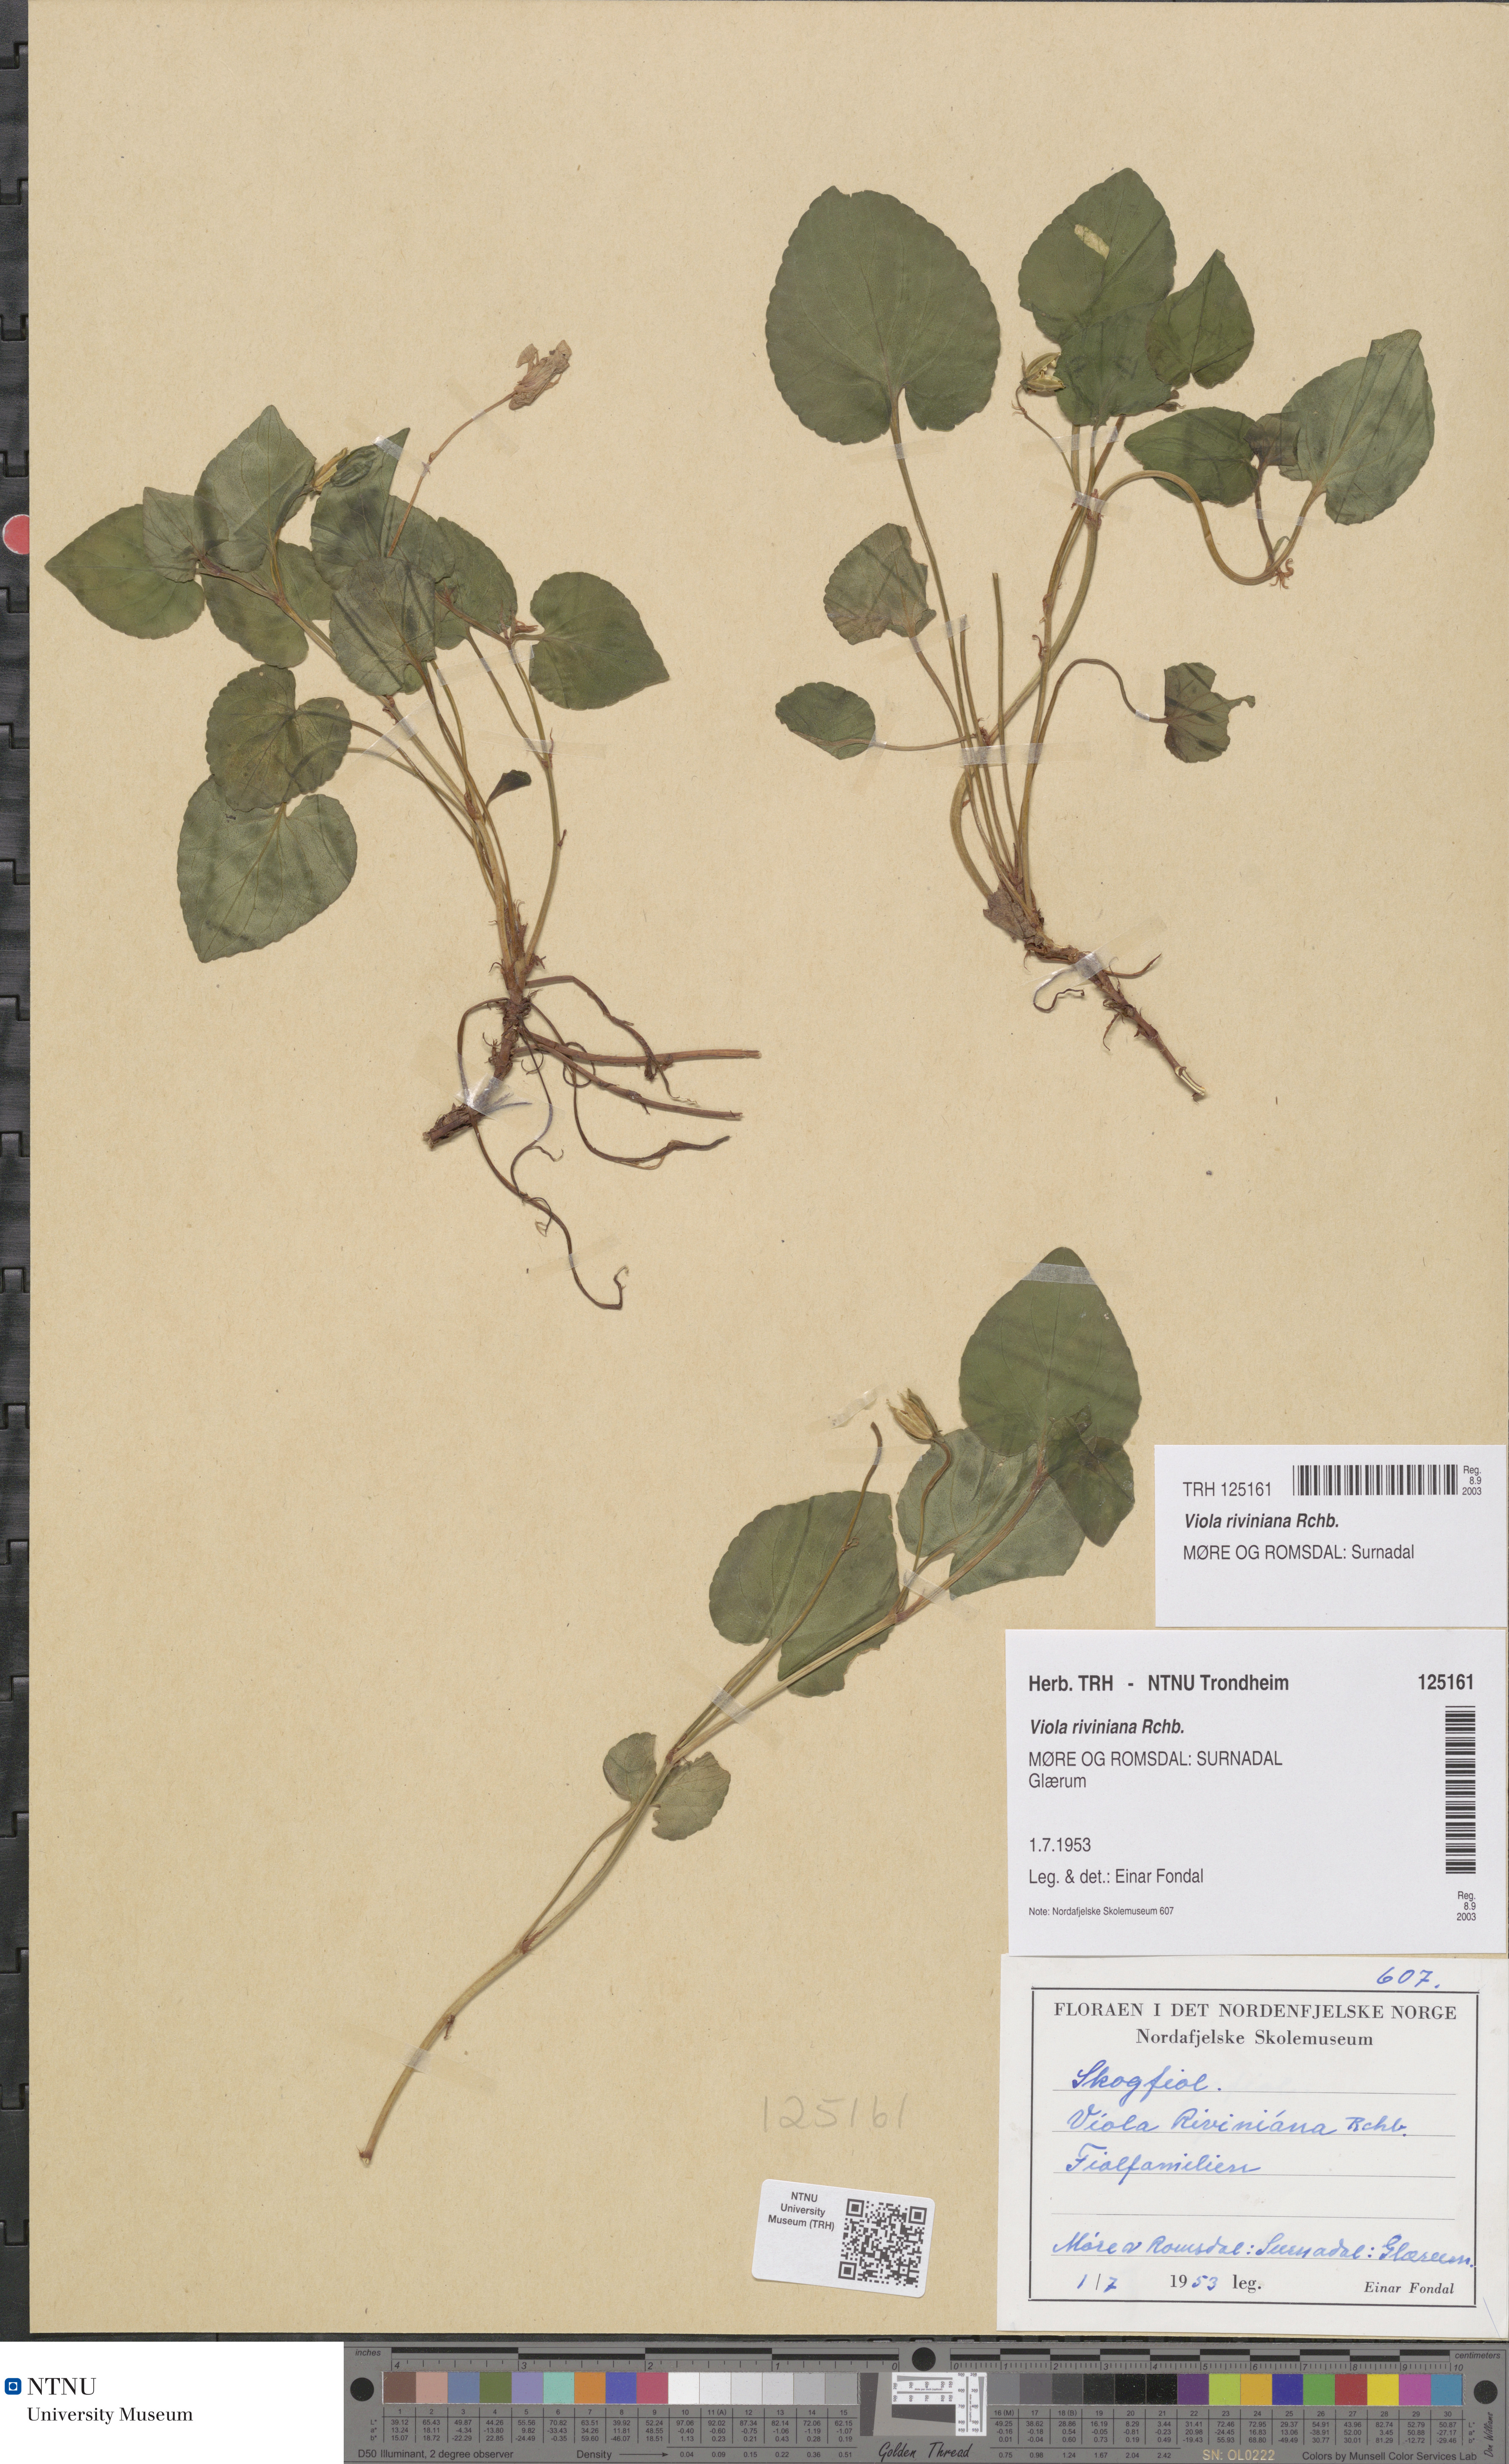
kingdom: Plantae
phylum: Tracheophyta
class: Magnoliopsida
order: Malpighiales
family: Violaceae
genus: Viola
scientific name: Viola riviniana
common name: Common dog-violet
